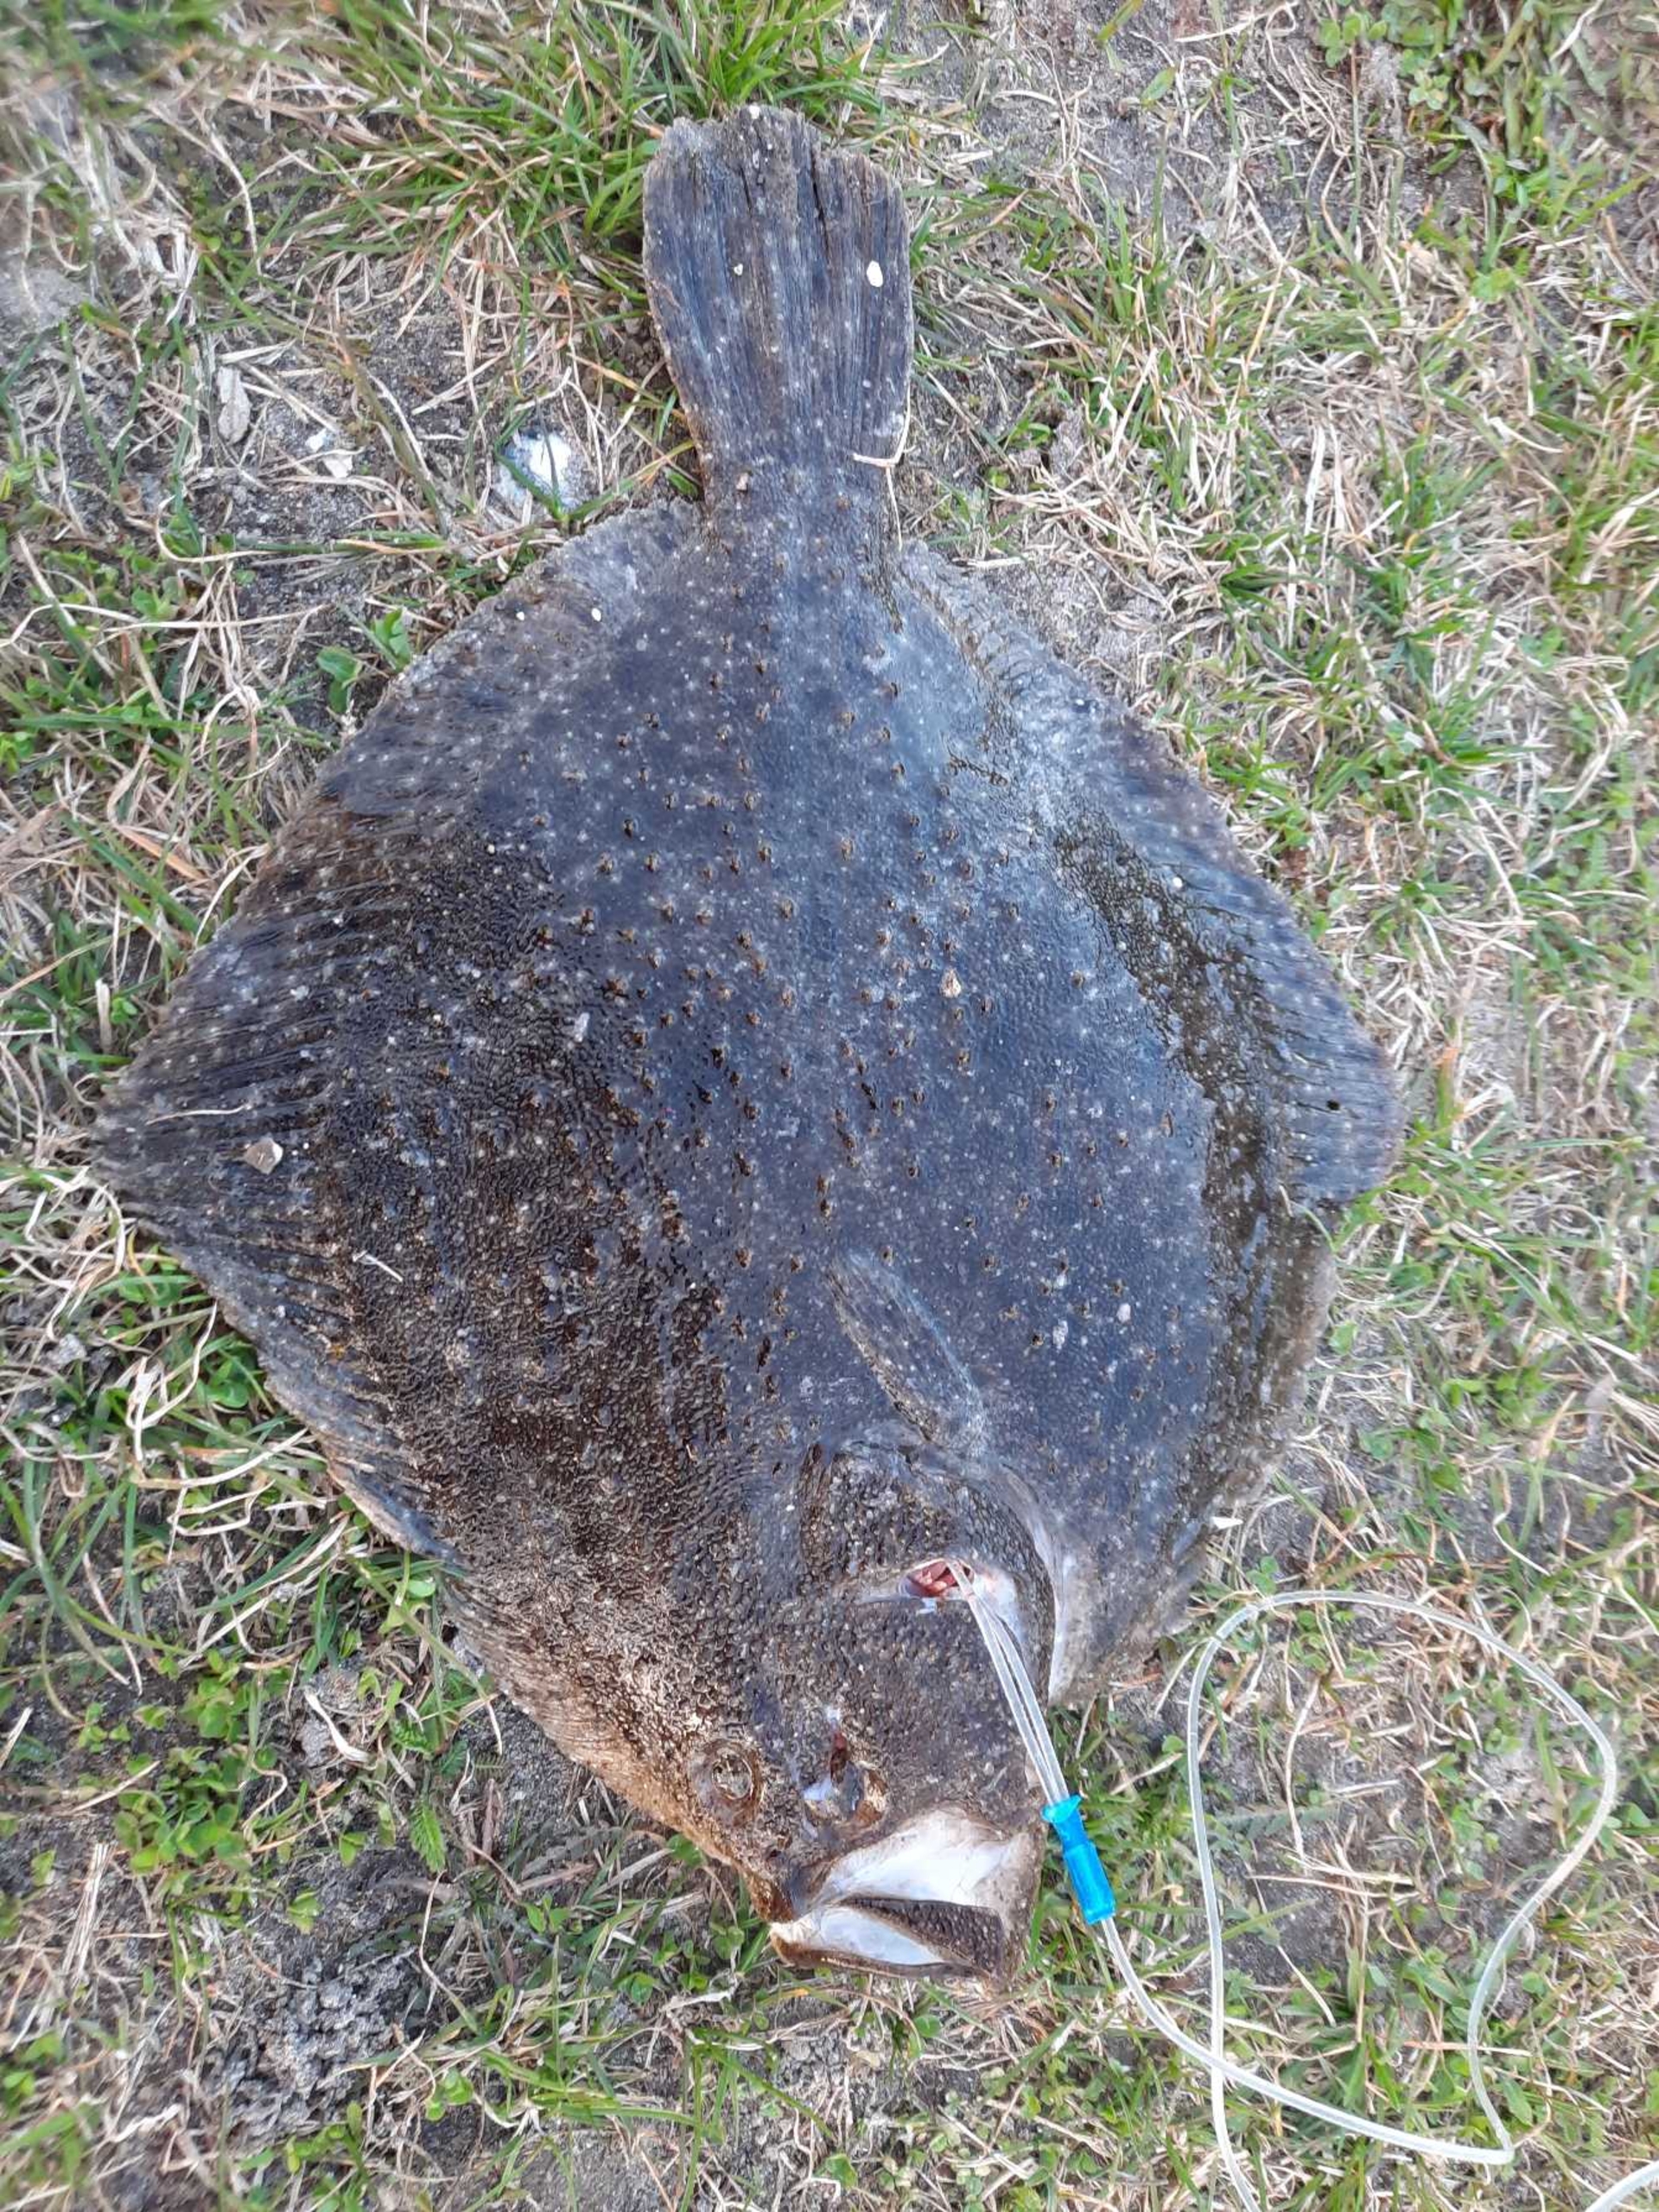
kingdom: Animalia
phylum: Chordata
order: Pleuronectiformes
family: Scophthalmidae
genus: Scophthalmus
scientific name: Scophthalmus maximus
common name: Pighvarre
